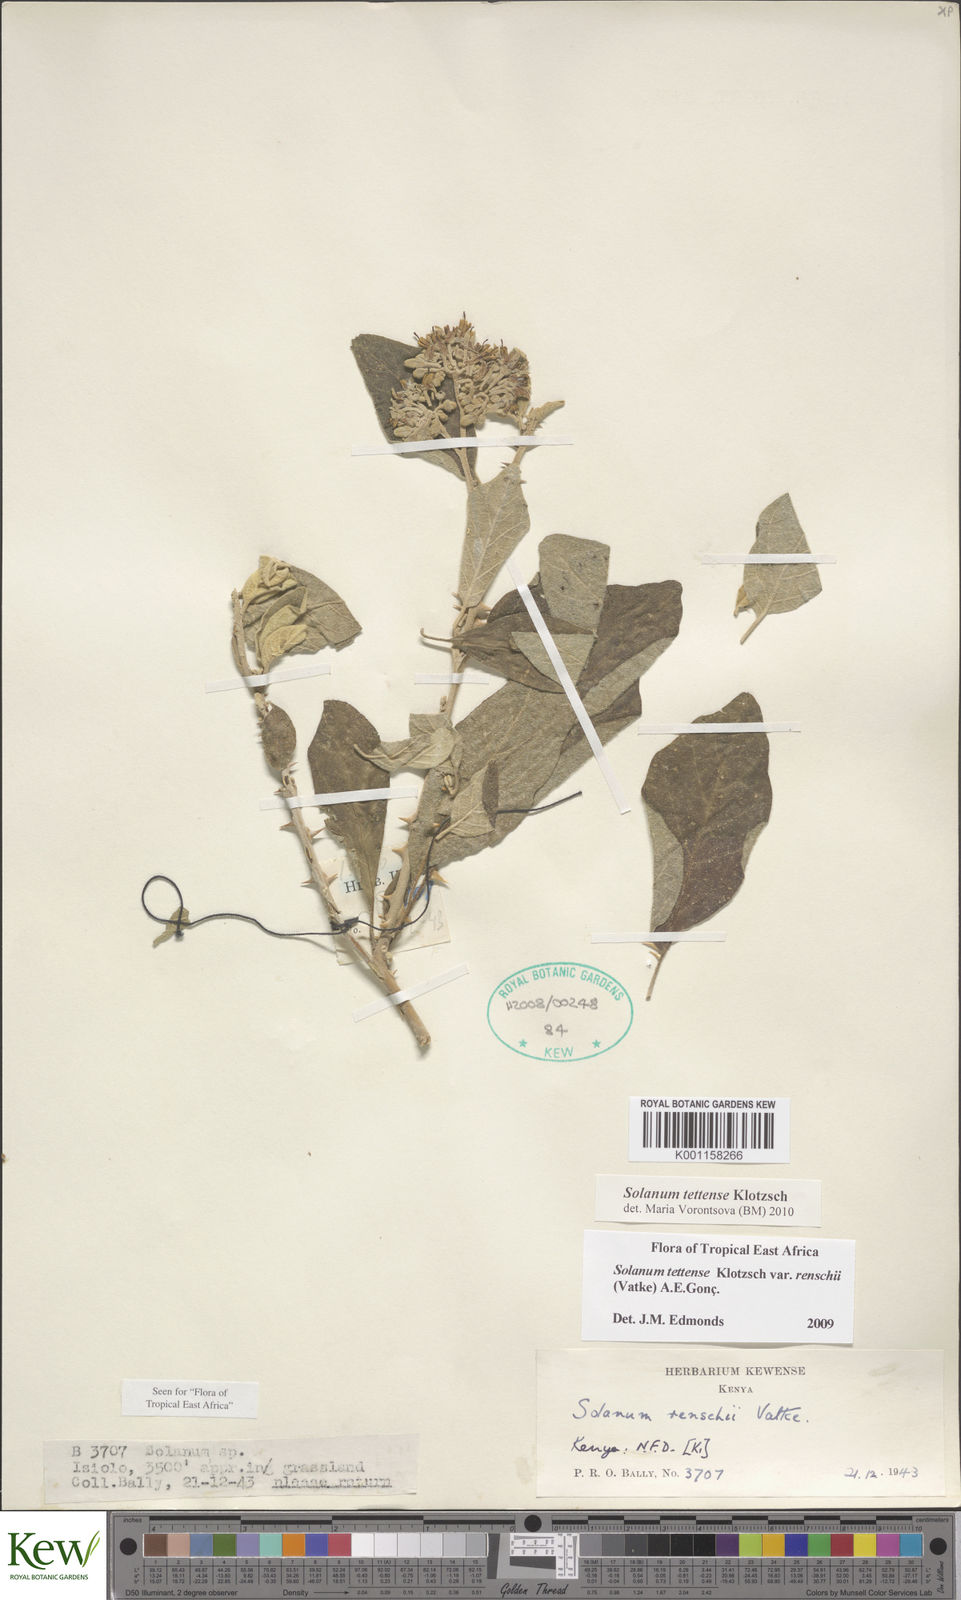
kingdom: Plantae
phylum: Tracheophyta
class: Magnoliopsida
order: Solanales
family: Solanaceae
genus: Solanum
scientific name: Solanum tettense
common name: Mozambique bitter apple
